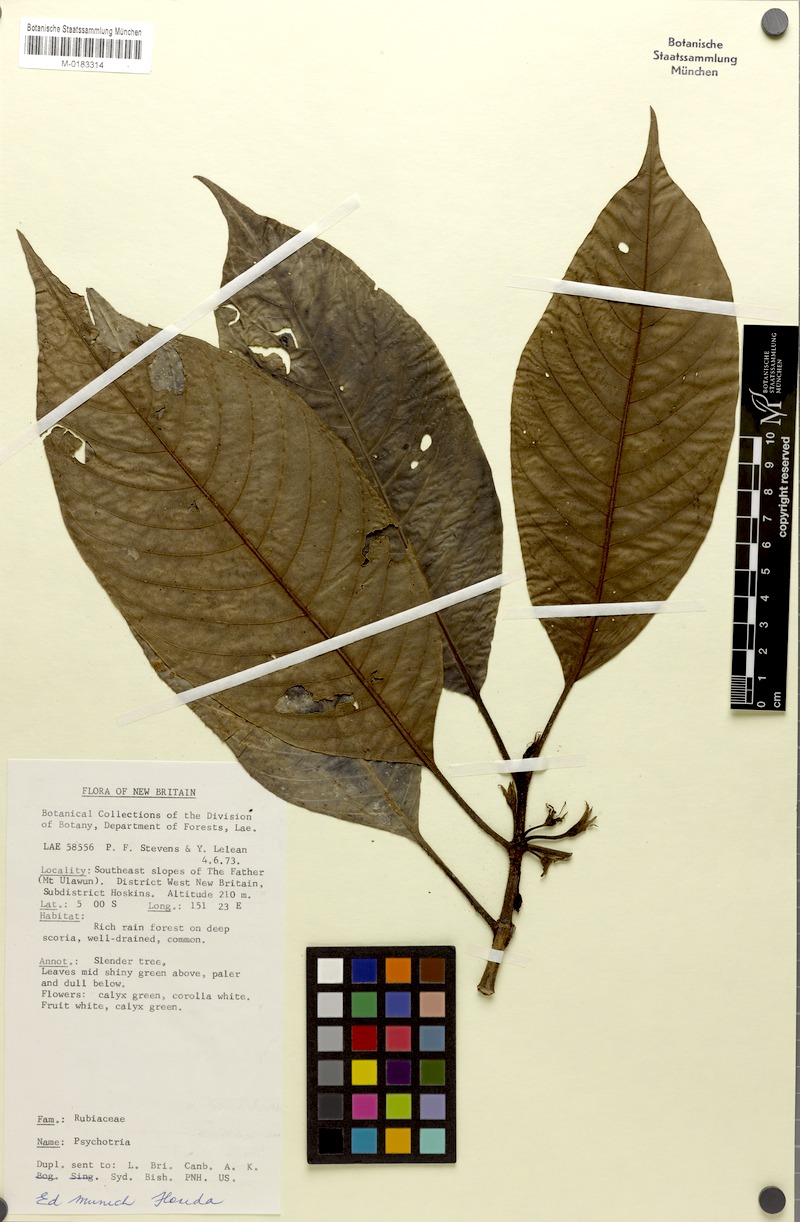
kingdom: Plantae
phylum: Tracheophyta
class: Magnoliopsida
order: Gentianales
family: Rubiaceae
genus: Psychotria
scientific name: Psychotria stevensiana
